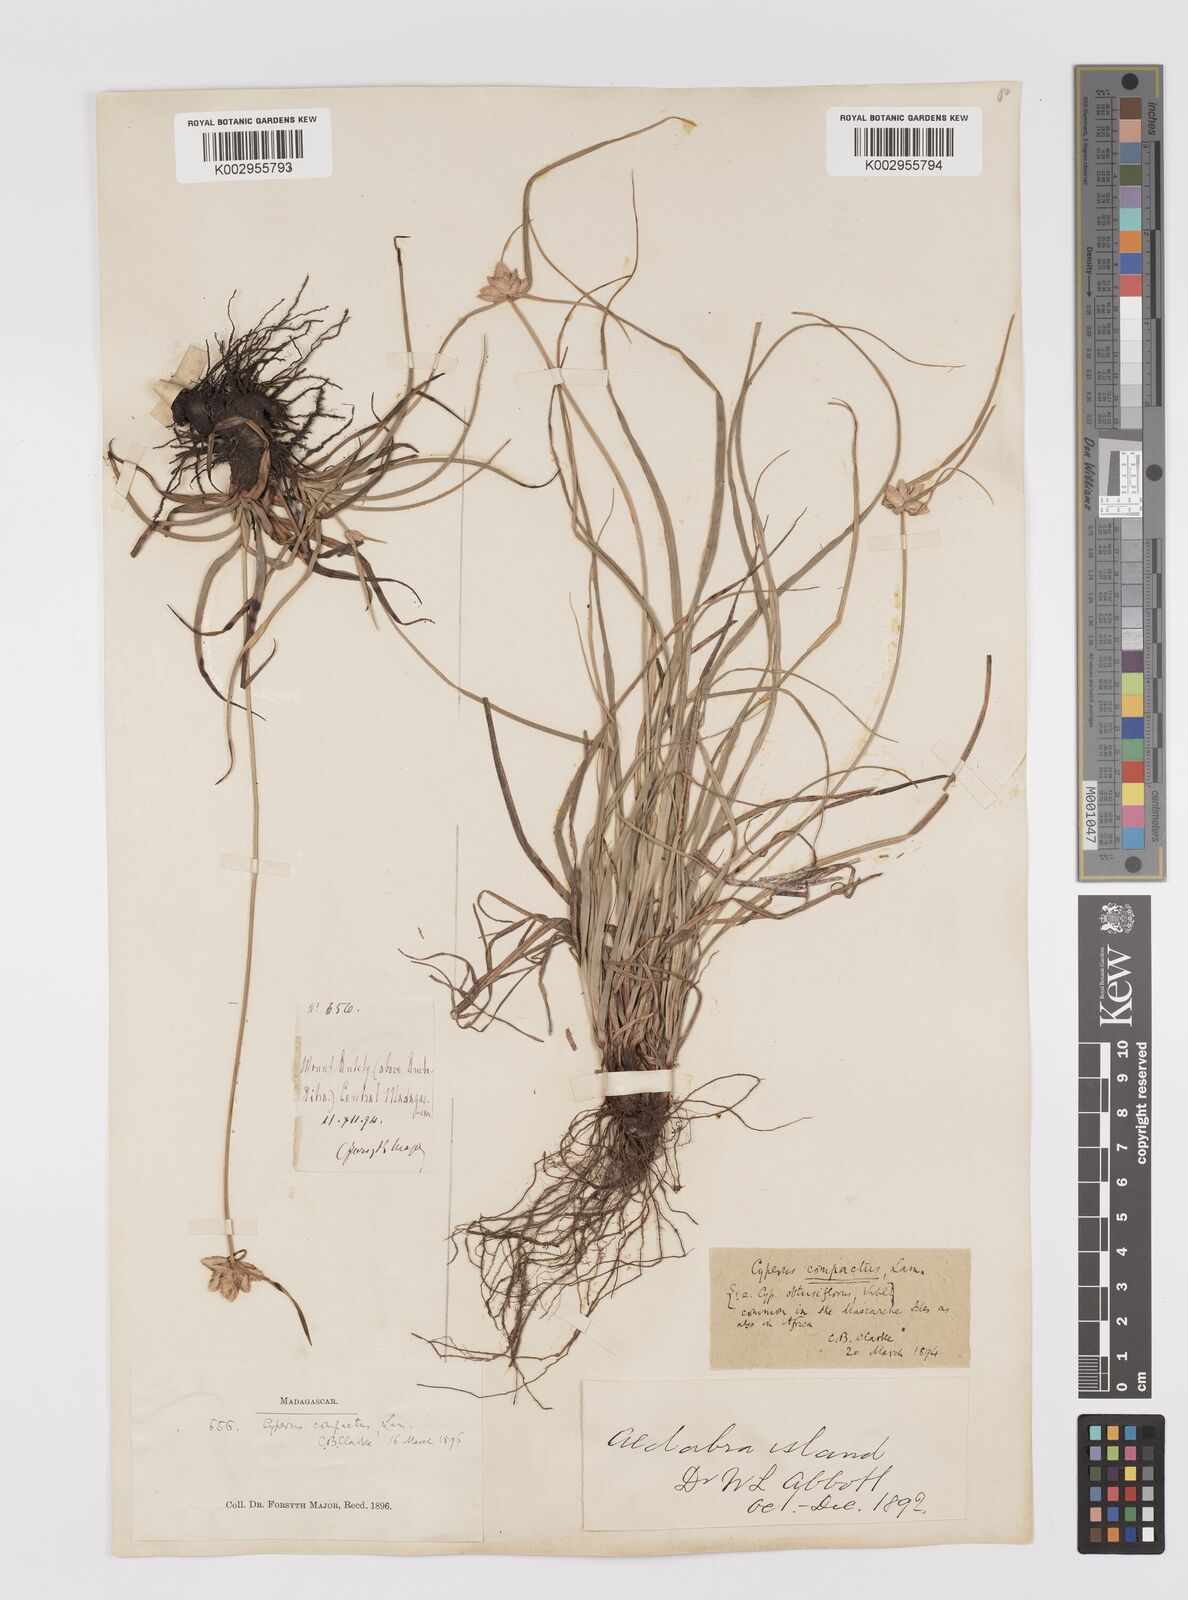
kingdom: Plantae
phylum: Tracheophyta
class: Liliopsida
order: Poales
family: Cyperaceae
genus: Cyperus
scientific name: Cyperus niveus
